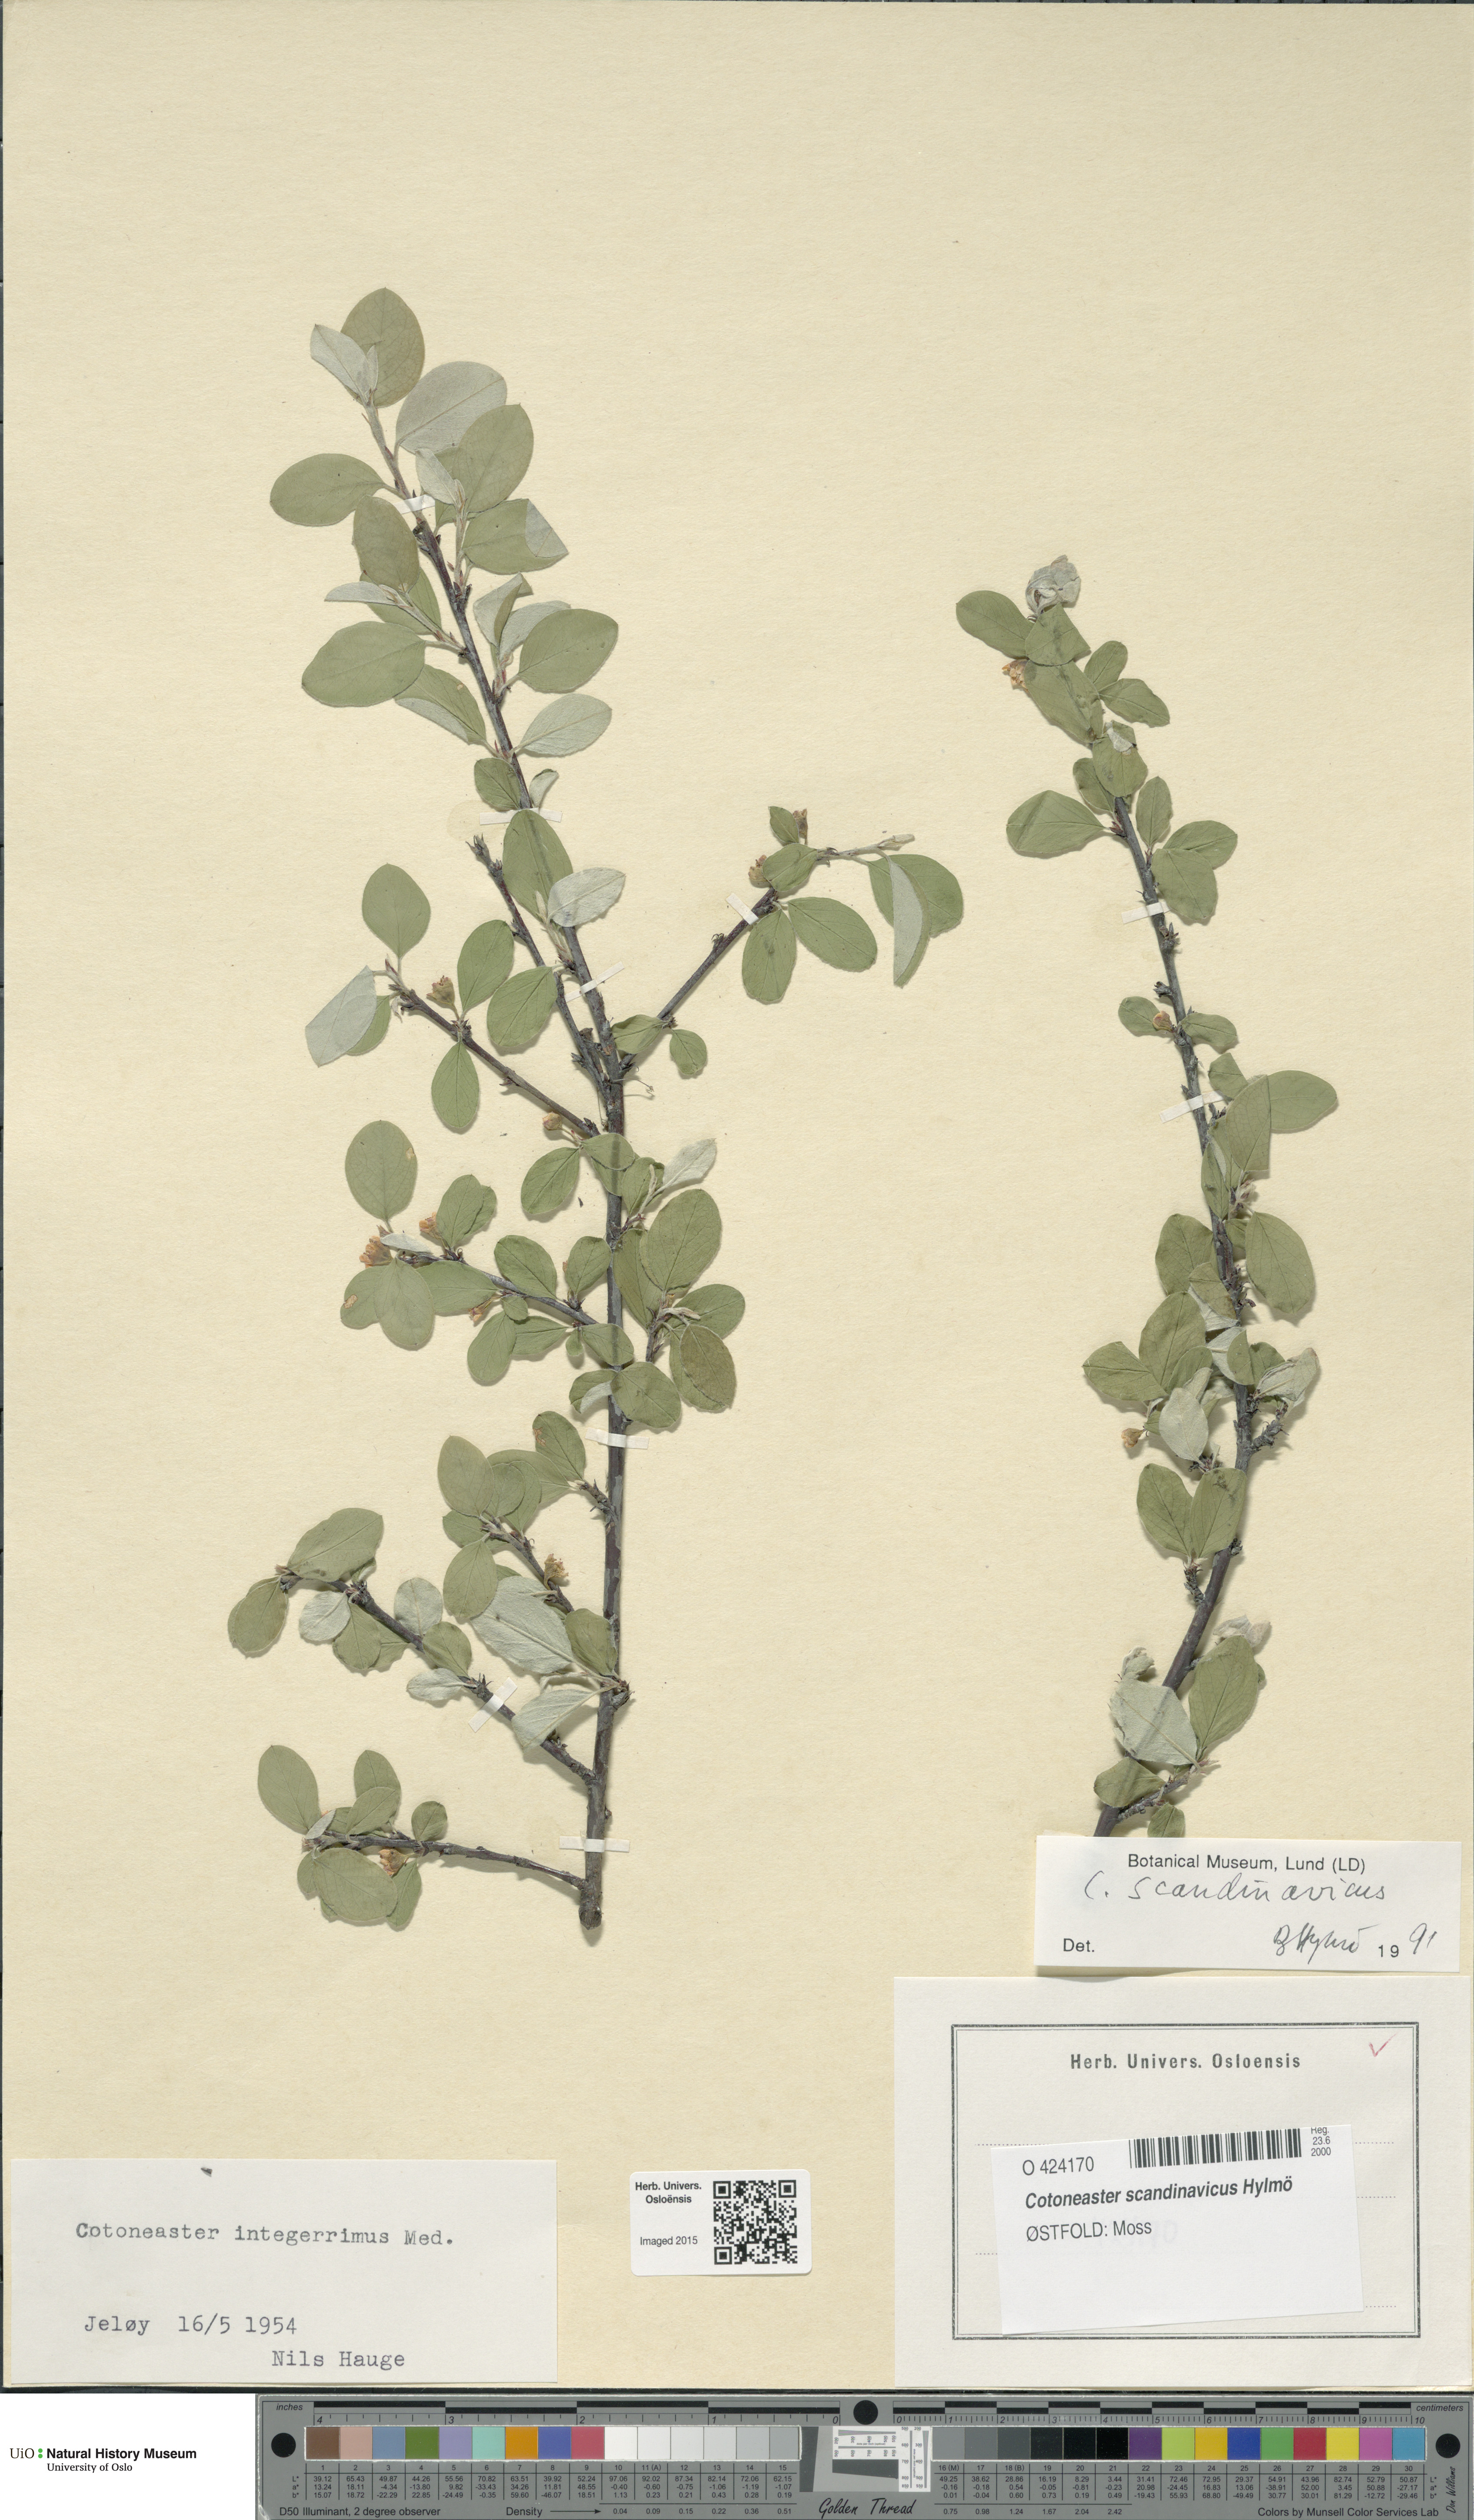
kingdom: Plantae
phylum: Tracheophyta
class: Magnoliopsida
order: Rosales
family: Rosaceae
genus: Cotoneaster
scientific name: Cotoneaster integerrimus
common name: Wild cotoneaster
